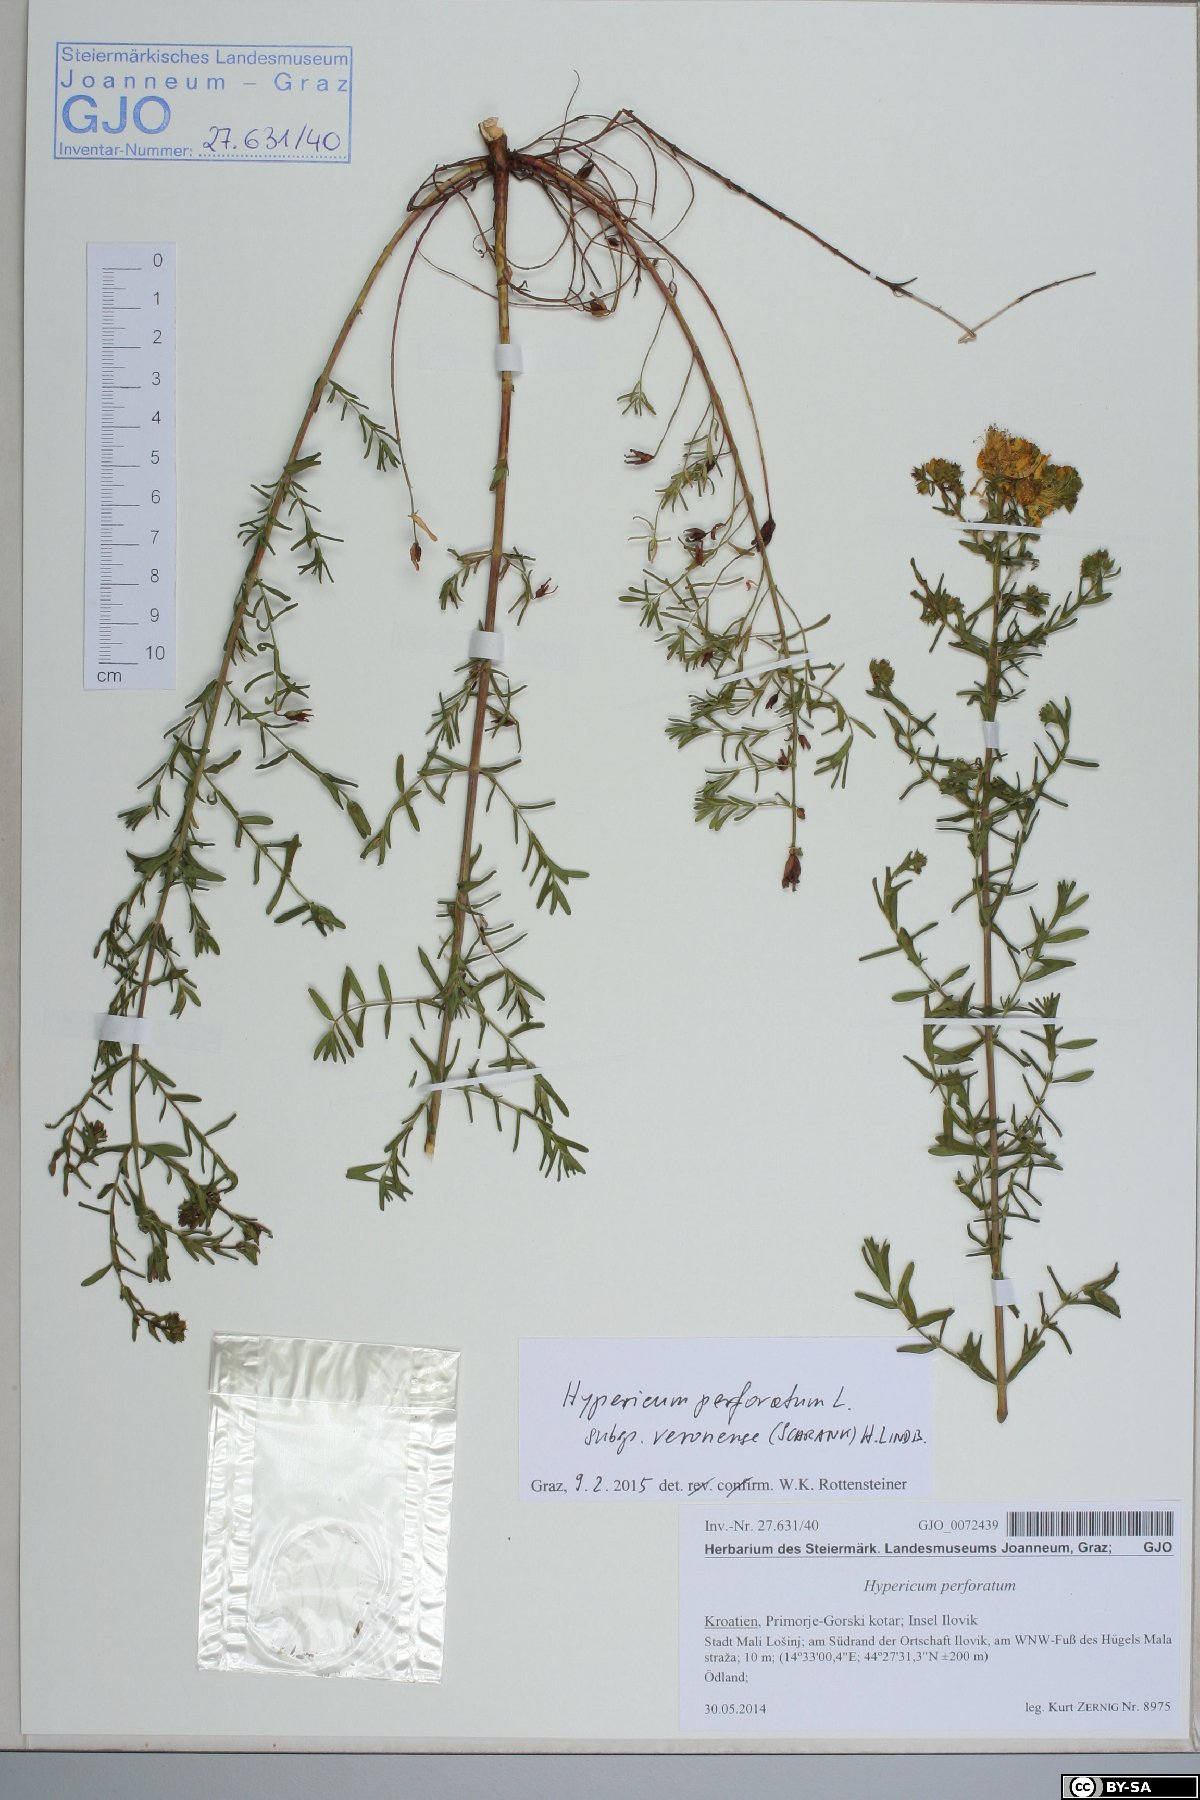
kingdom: Plantae
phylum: Tracheophyta
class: Magnoliopsida
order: Malpighiales
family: Hypericaceae
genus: Hypericum
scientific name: Hypericum veronense
